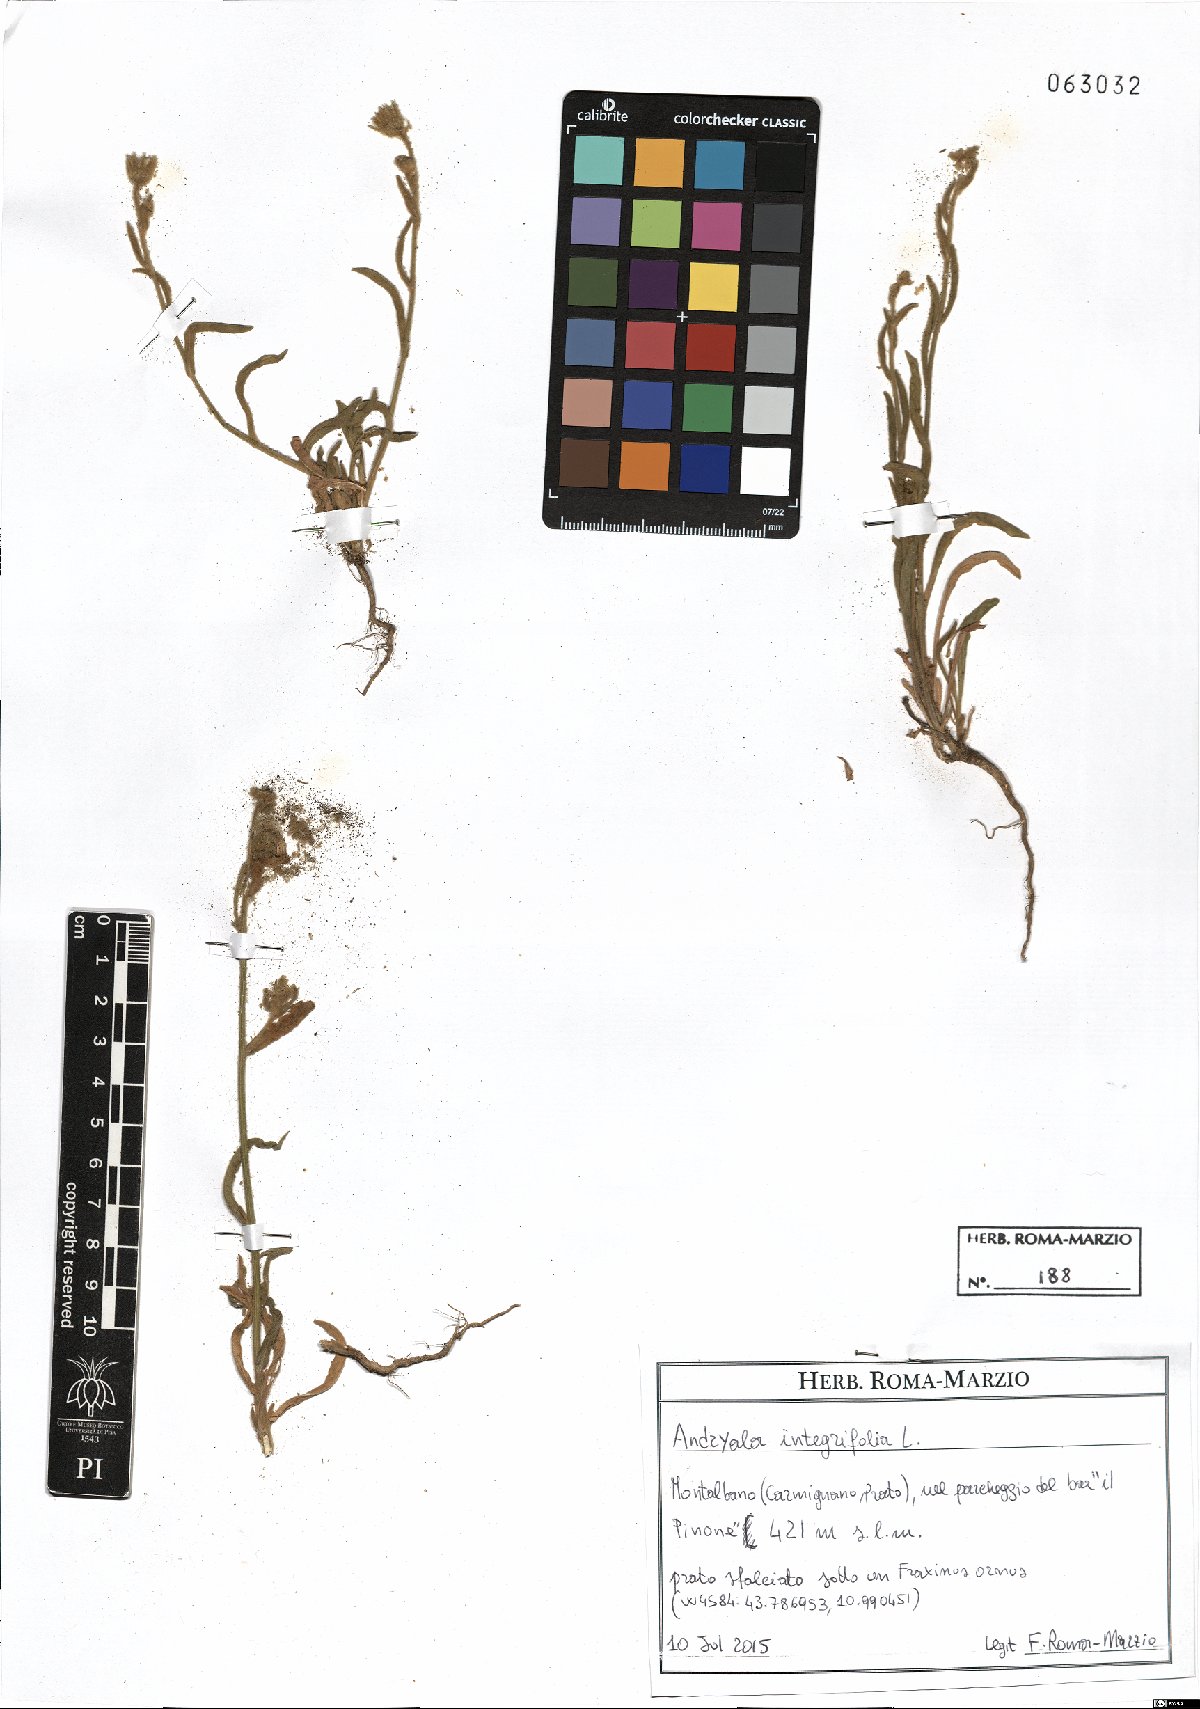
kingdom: Plantae
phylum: Tracheophyta
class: Magnoliopsida
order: Asterales
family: Asteraceae
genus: Andryala
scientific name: Andryala integrifolia
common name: Common andryala
